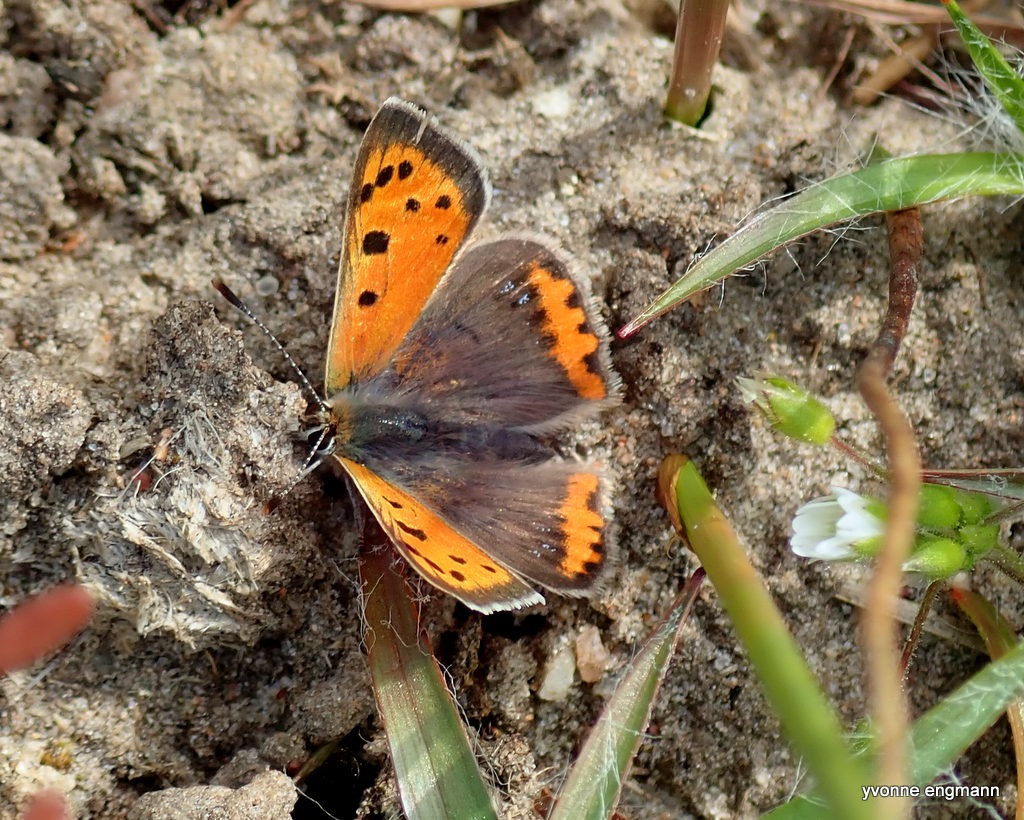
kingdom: Animalia
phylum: Arthropoda
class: Insecta
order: Lepidoptera
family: Lycaenidae
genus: Lycaena
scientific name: Lycaena phlaeas
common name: Lille ildfugl
